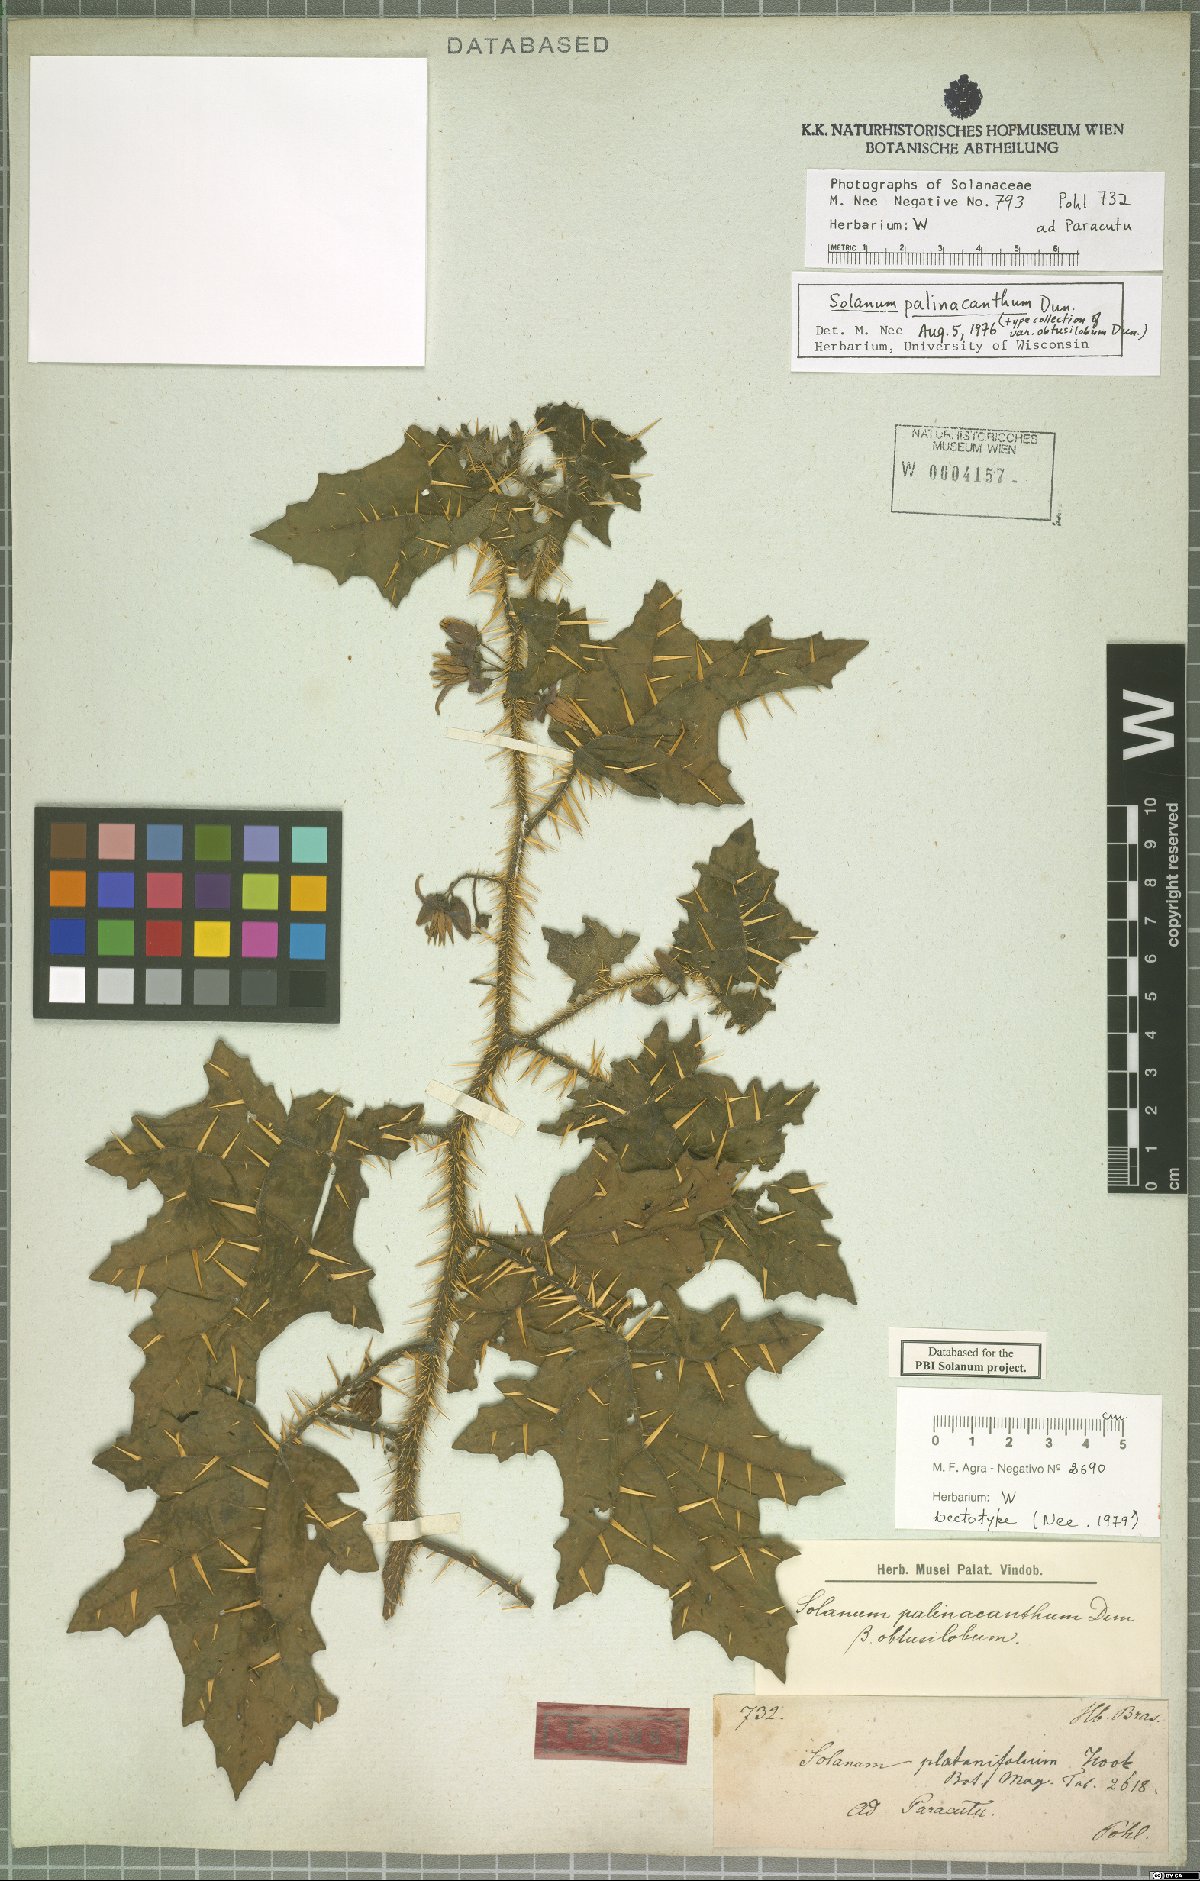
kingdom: Plantae
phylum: Tracheophyta
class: Magnoliopsida
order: Solanales
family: Solanaceae
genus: Solanum
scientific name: Solanum palinacanthum
